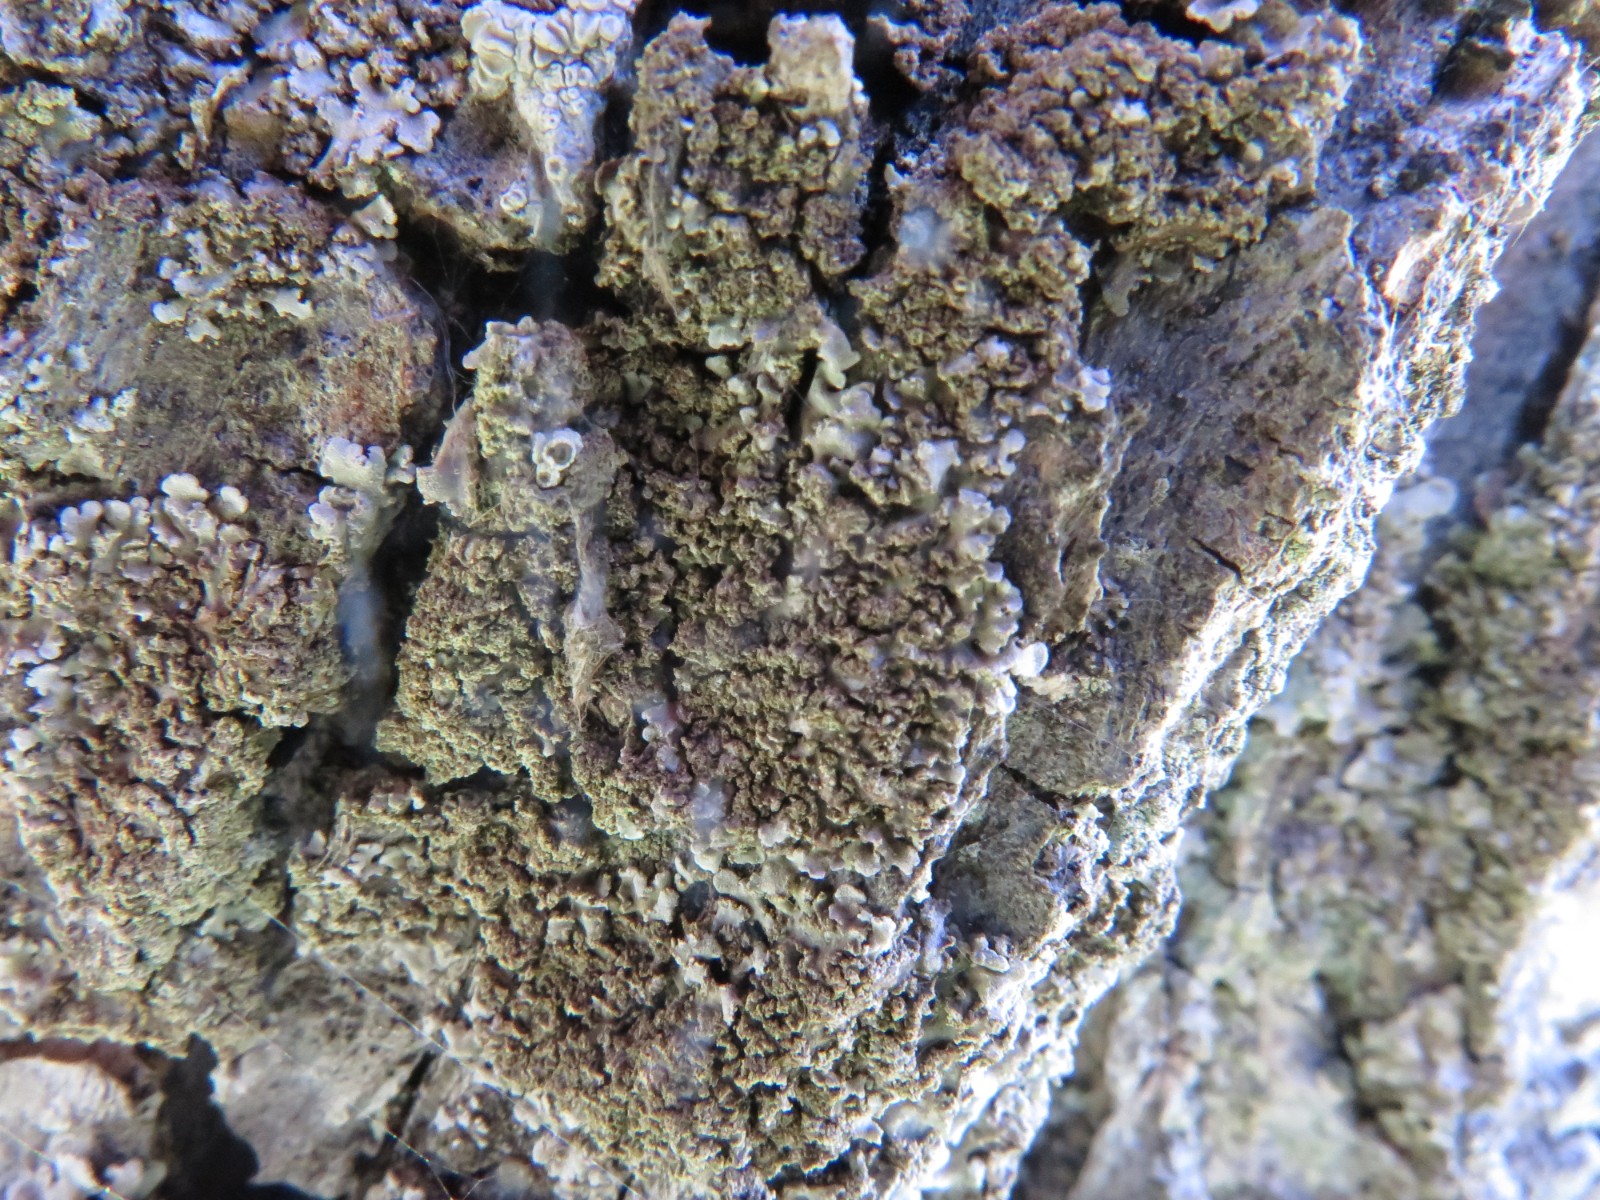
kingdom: Fungi
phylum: Ascomycota
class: Lecanoromycetes
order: Caliciales
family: Physciaceae
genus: Poeltonia
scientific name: Poeltonia grisea
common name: hvidgrå dugrosetlav
